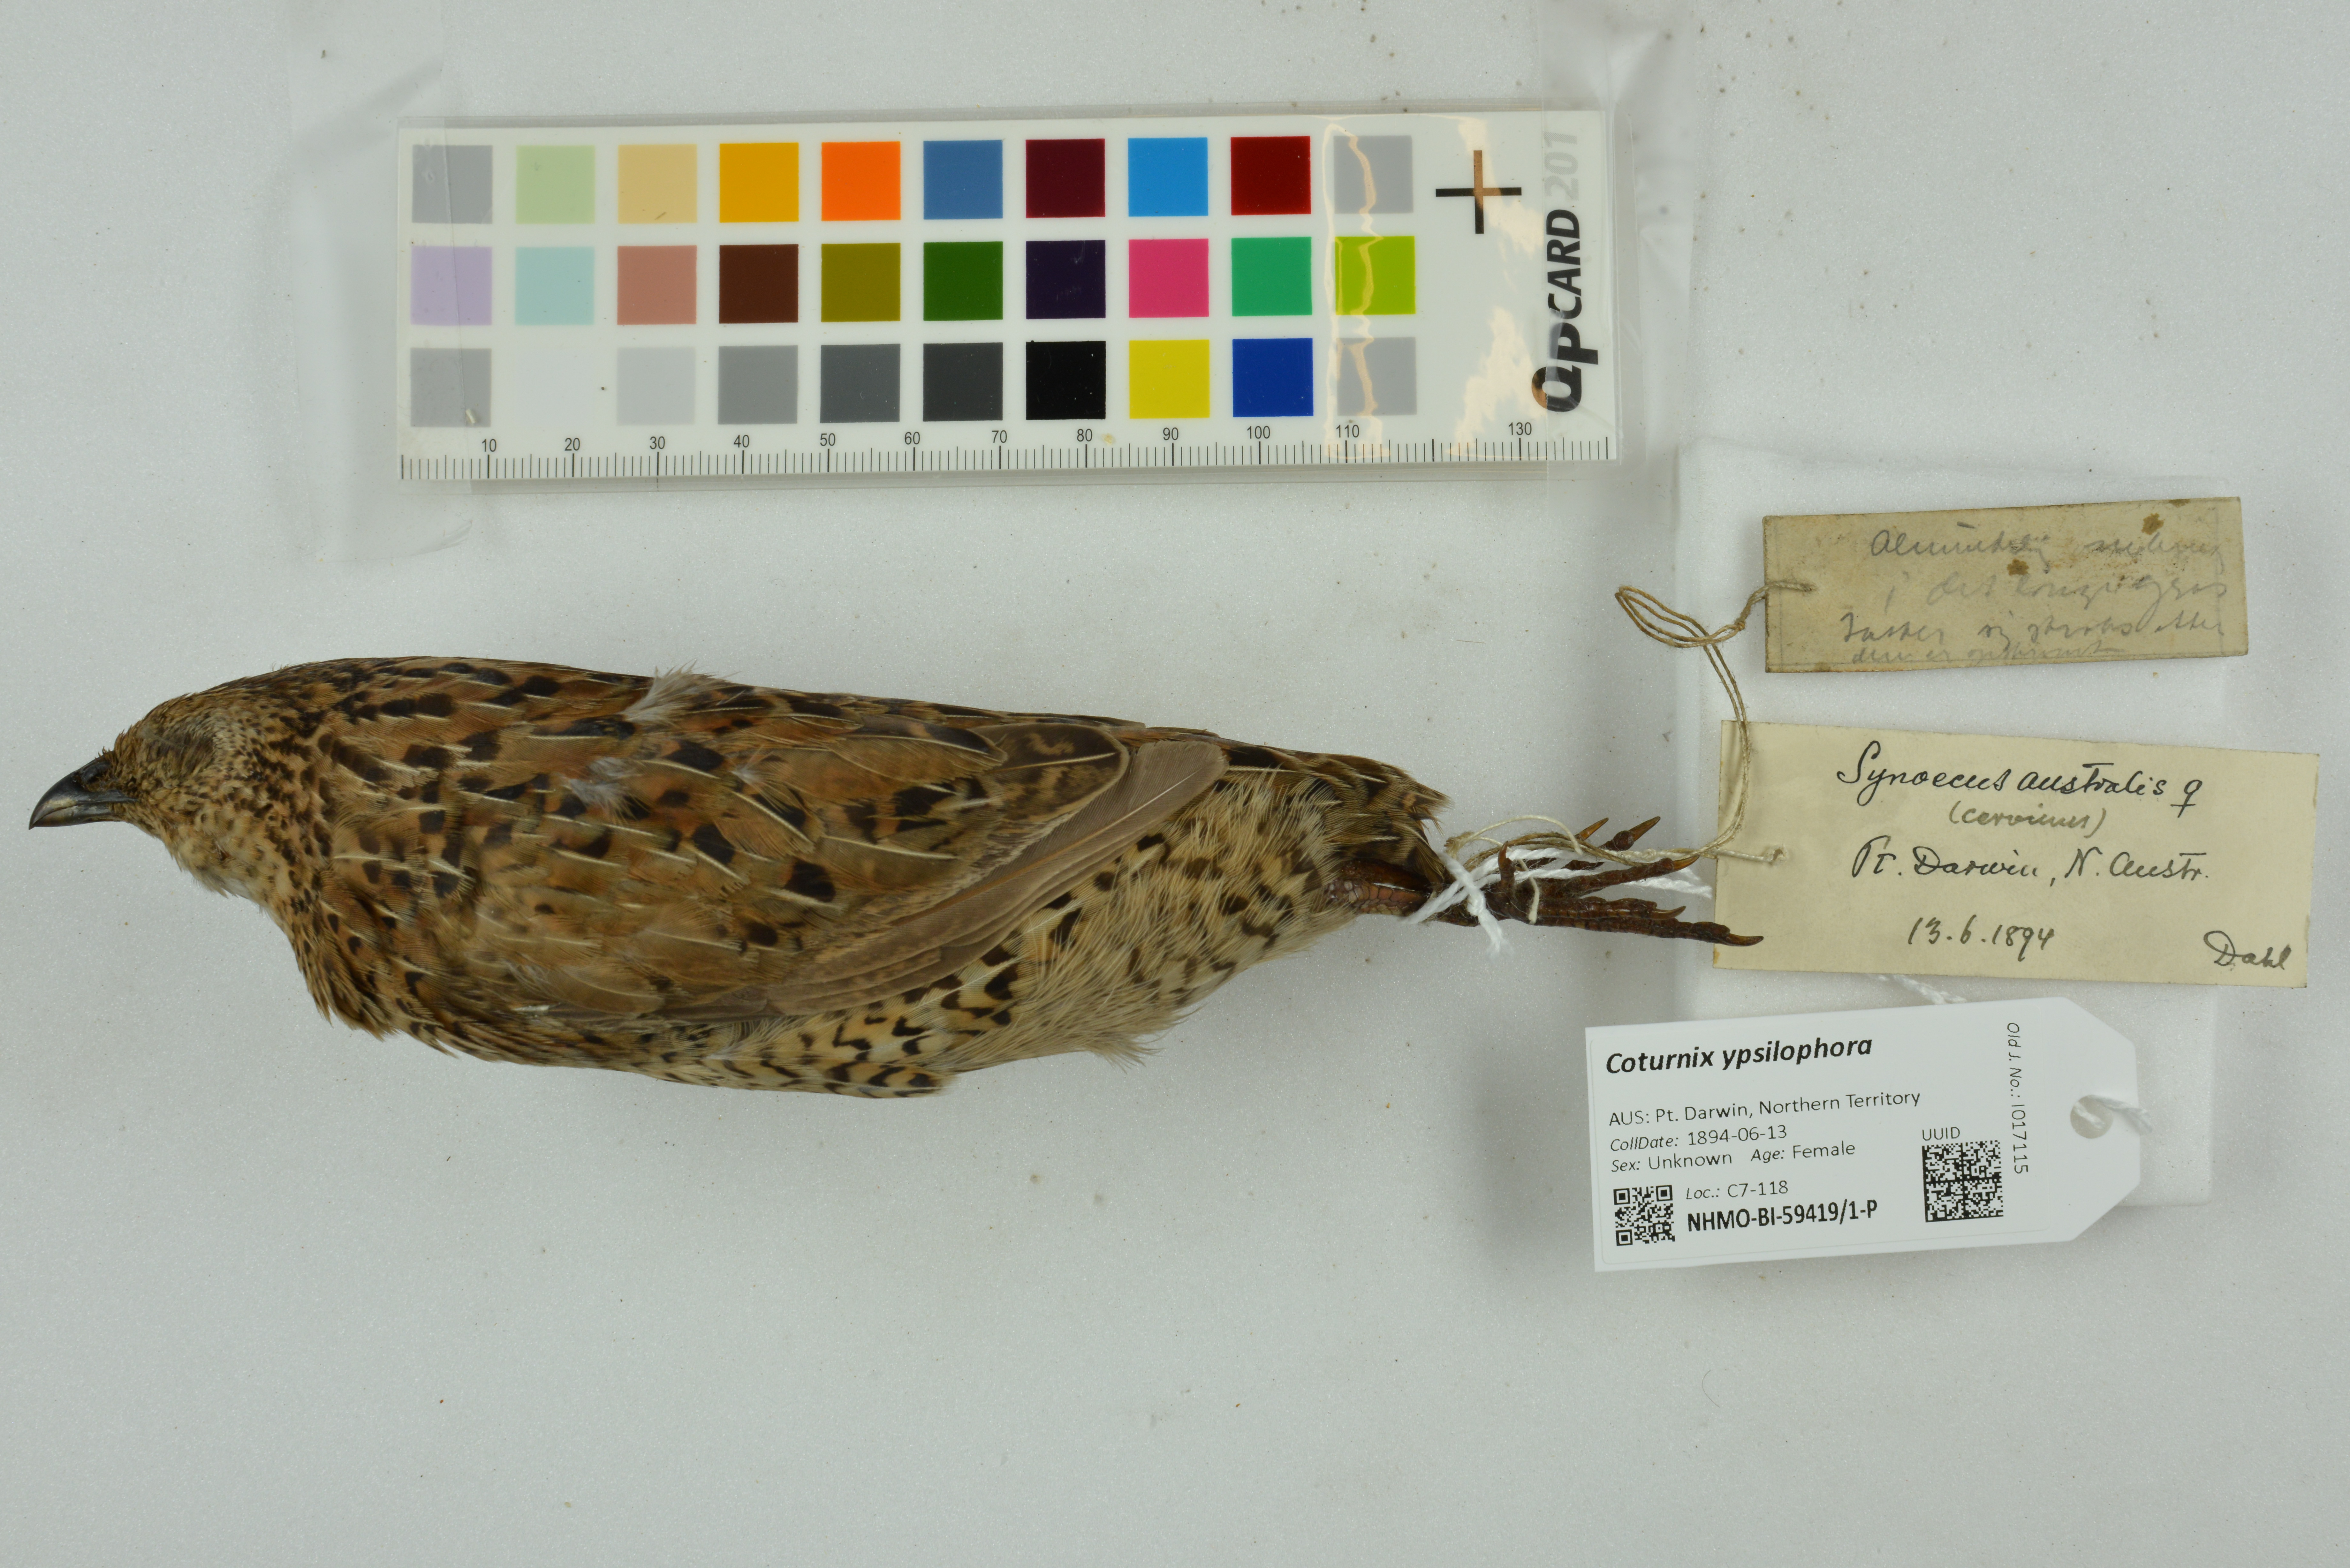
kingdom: Animalia
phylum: Chordata
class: Aves
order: Galliformes
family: Phasianidae
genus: Synoicus
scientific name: Synoicus ypsilophorus
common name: Brown quail
